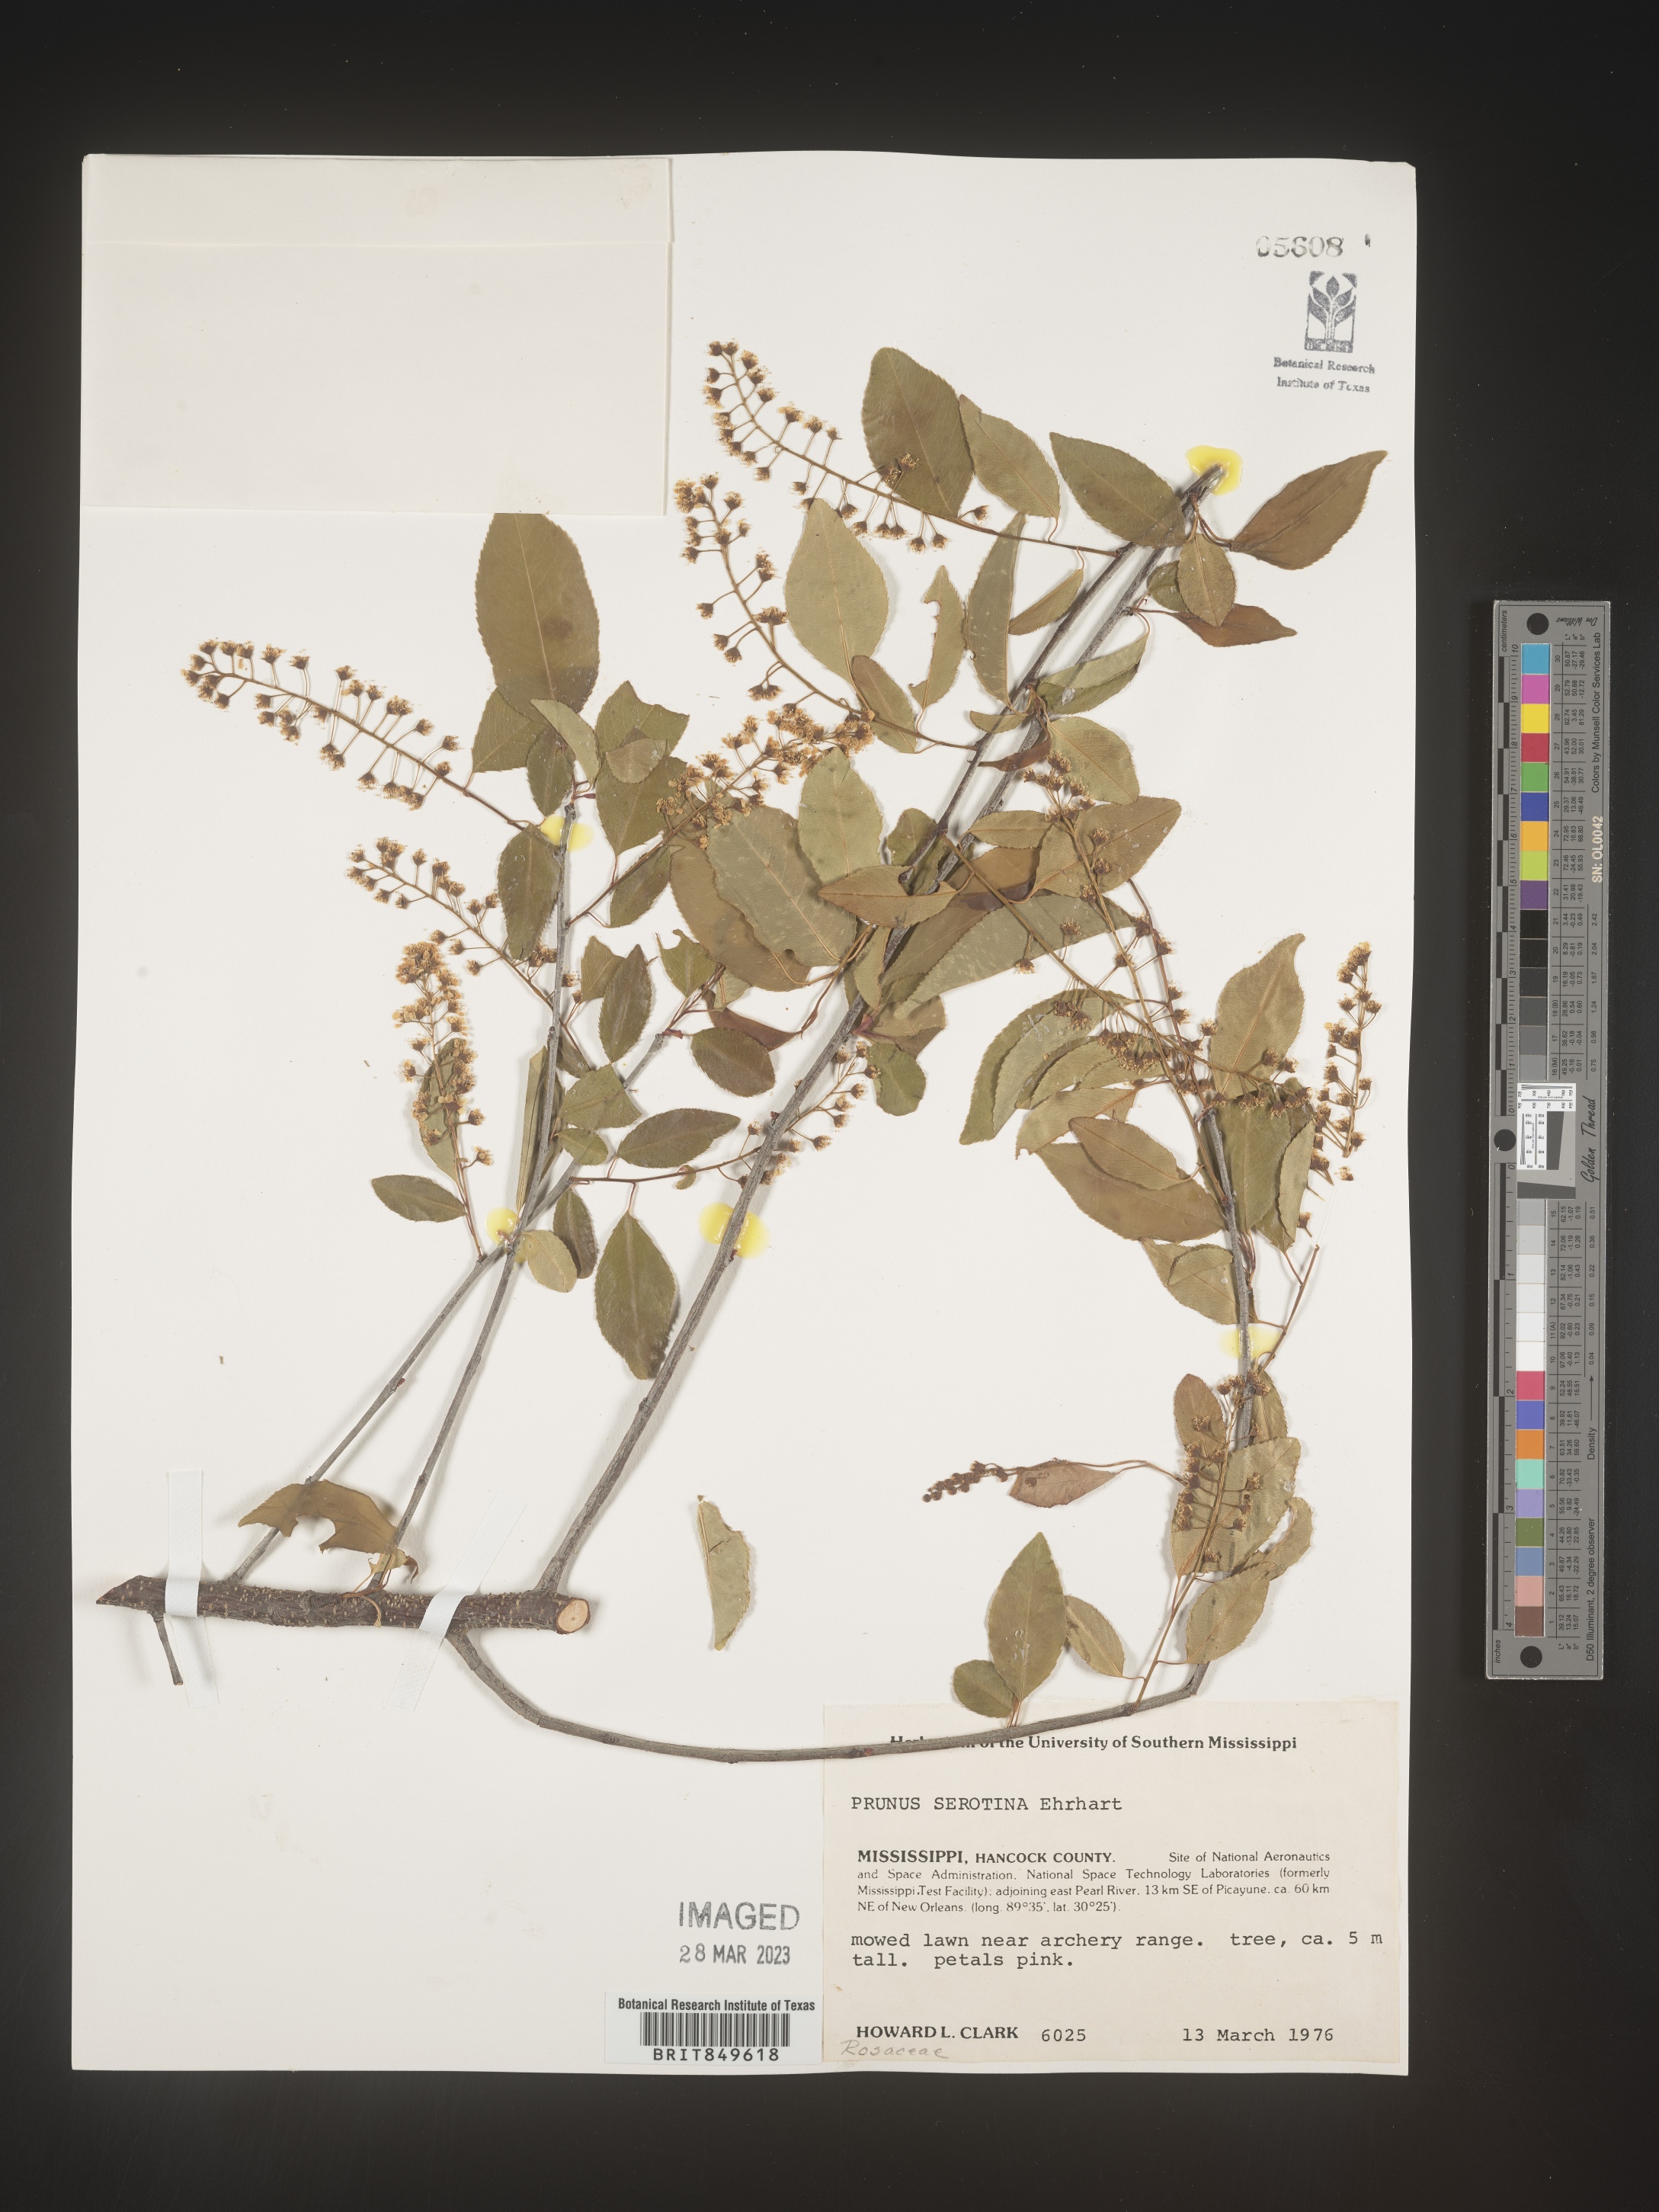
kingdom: Plantae
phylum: Tracheophyta
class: Magnoliopsida
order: Rosales
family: Rosaceae
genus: Prunus
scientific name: Prunus serotina
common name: Black cherry
